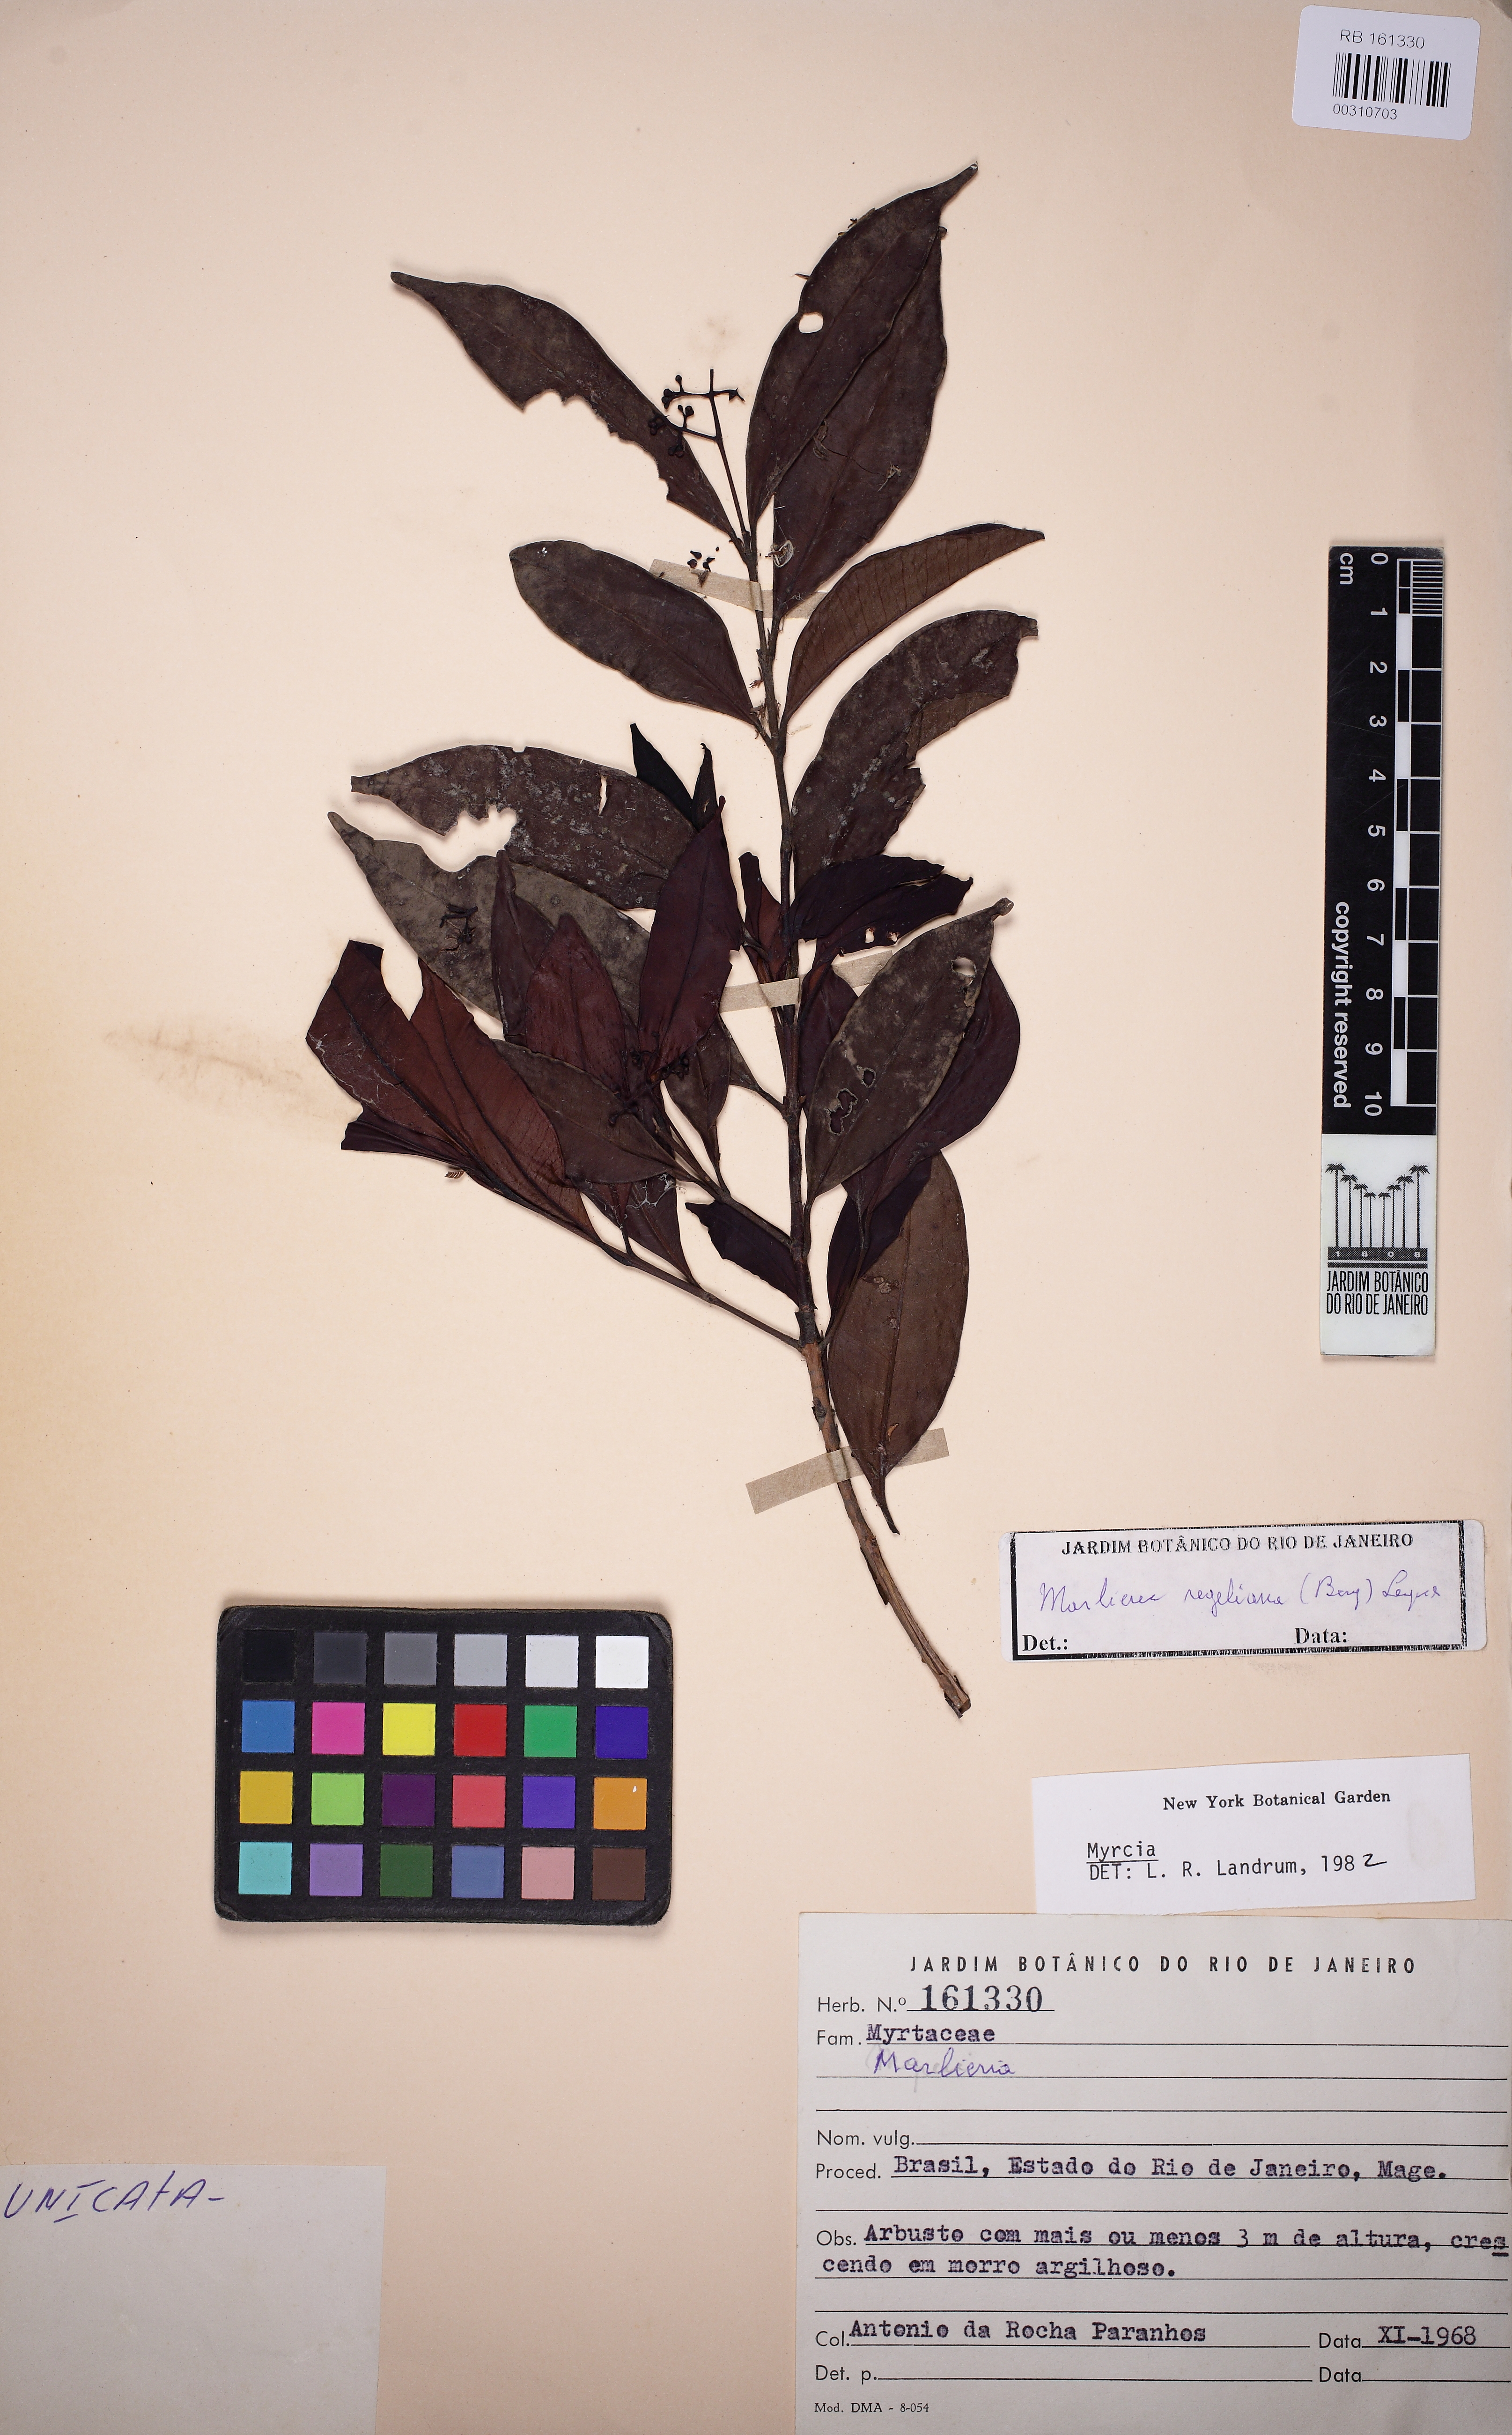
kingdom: Plantae
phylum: Tracheophyta
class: Magnoliopsida
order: Myrtales
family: Myrtaceae
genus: Myrcia
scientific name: Myrcia laxiflora
